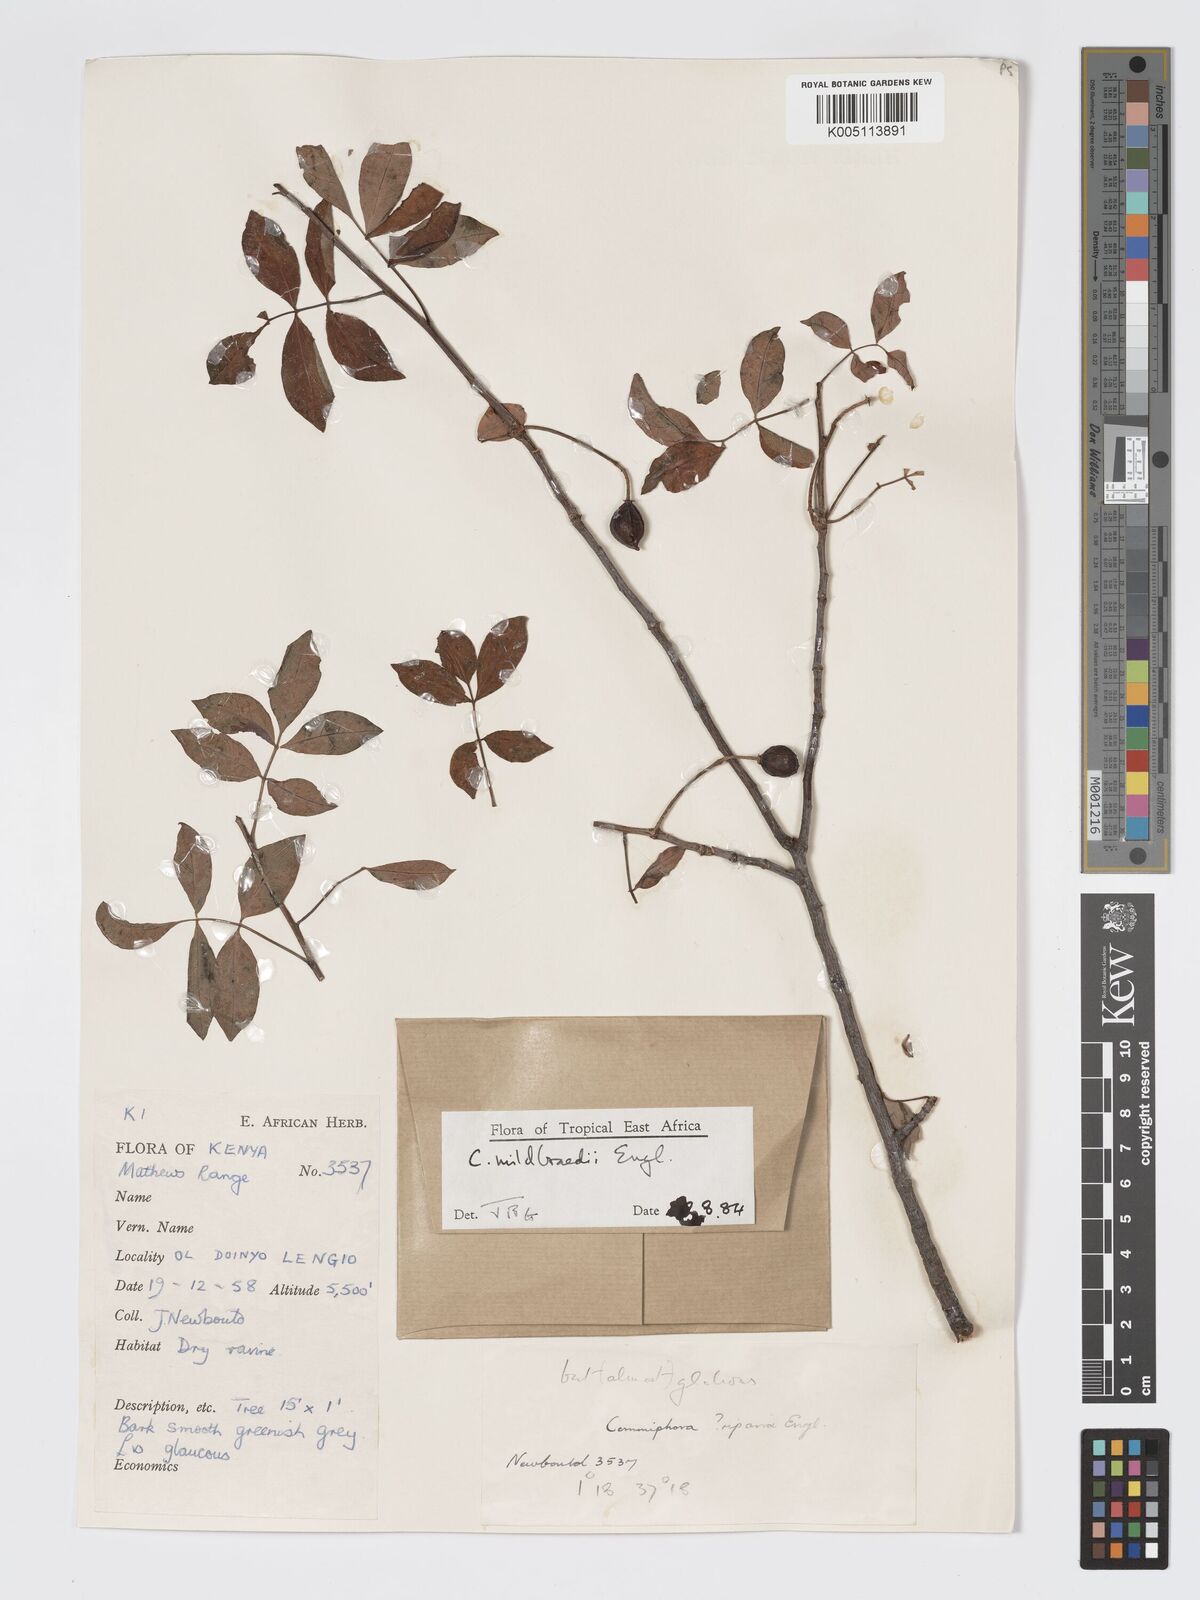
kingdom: Plantae
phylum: Tracheophyta
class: Magnoliopsida
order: Sapindales
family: Burseraceae
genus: Commiphora
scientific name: Commiphora mildbraedii
